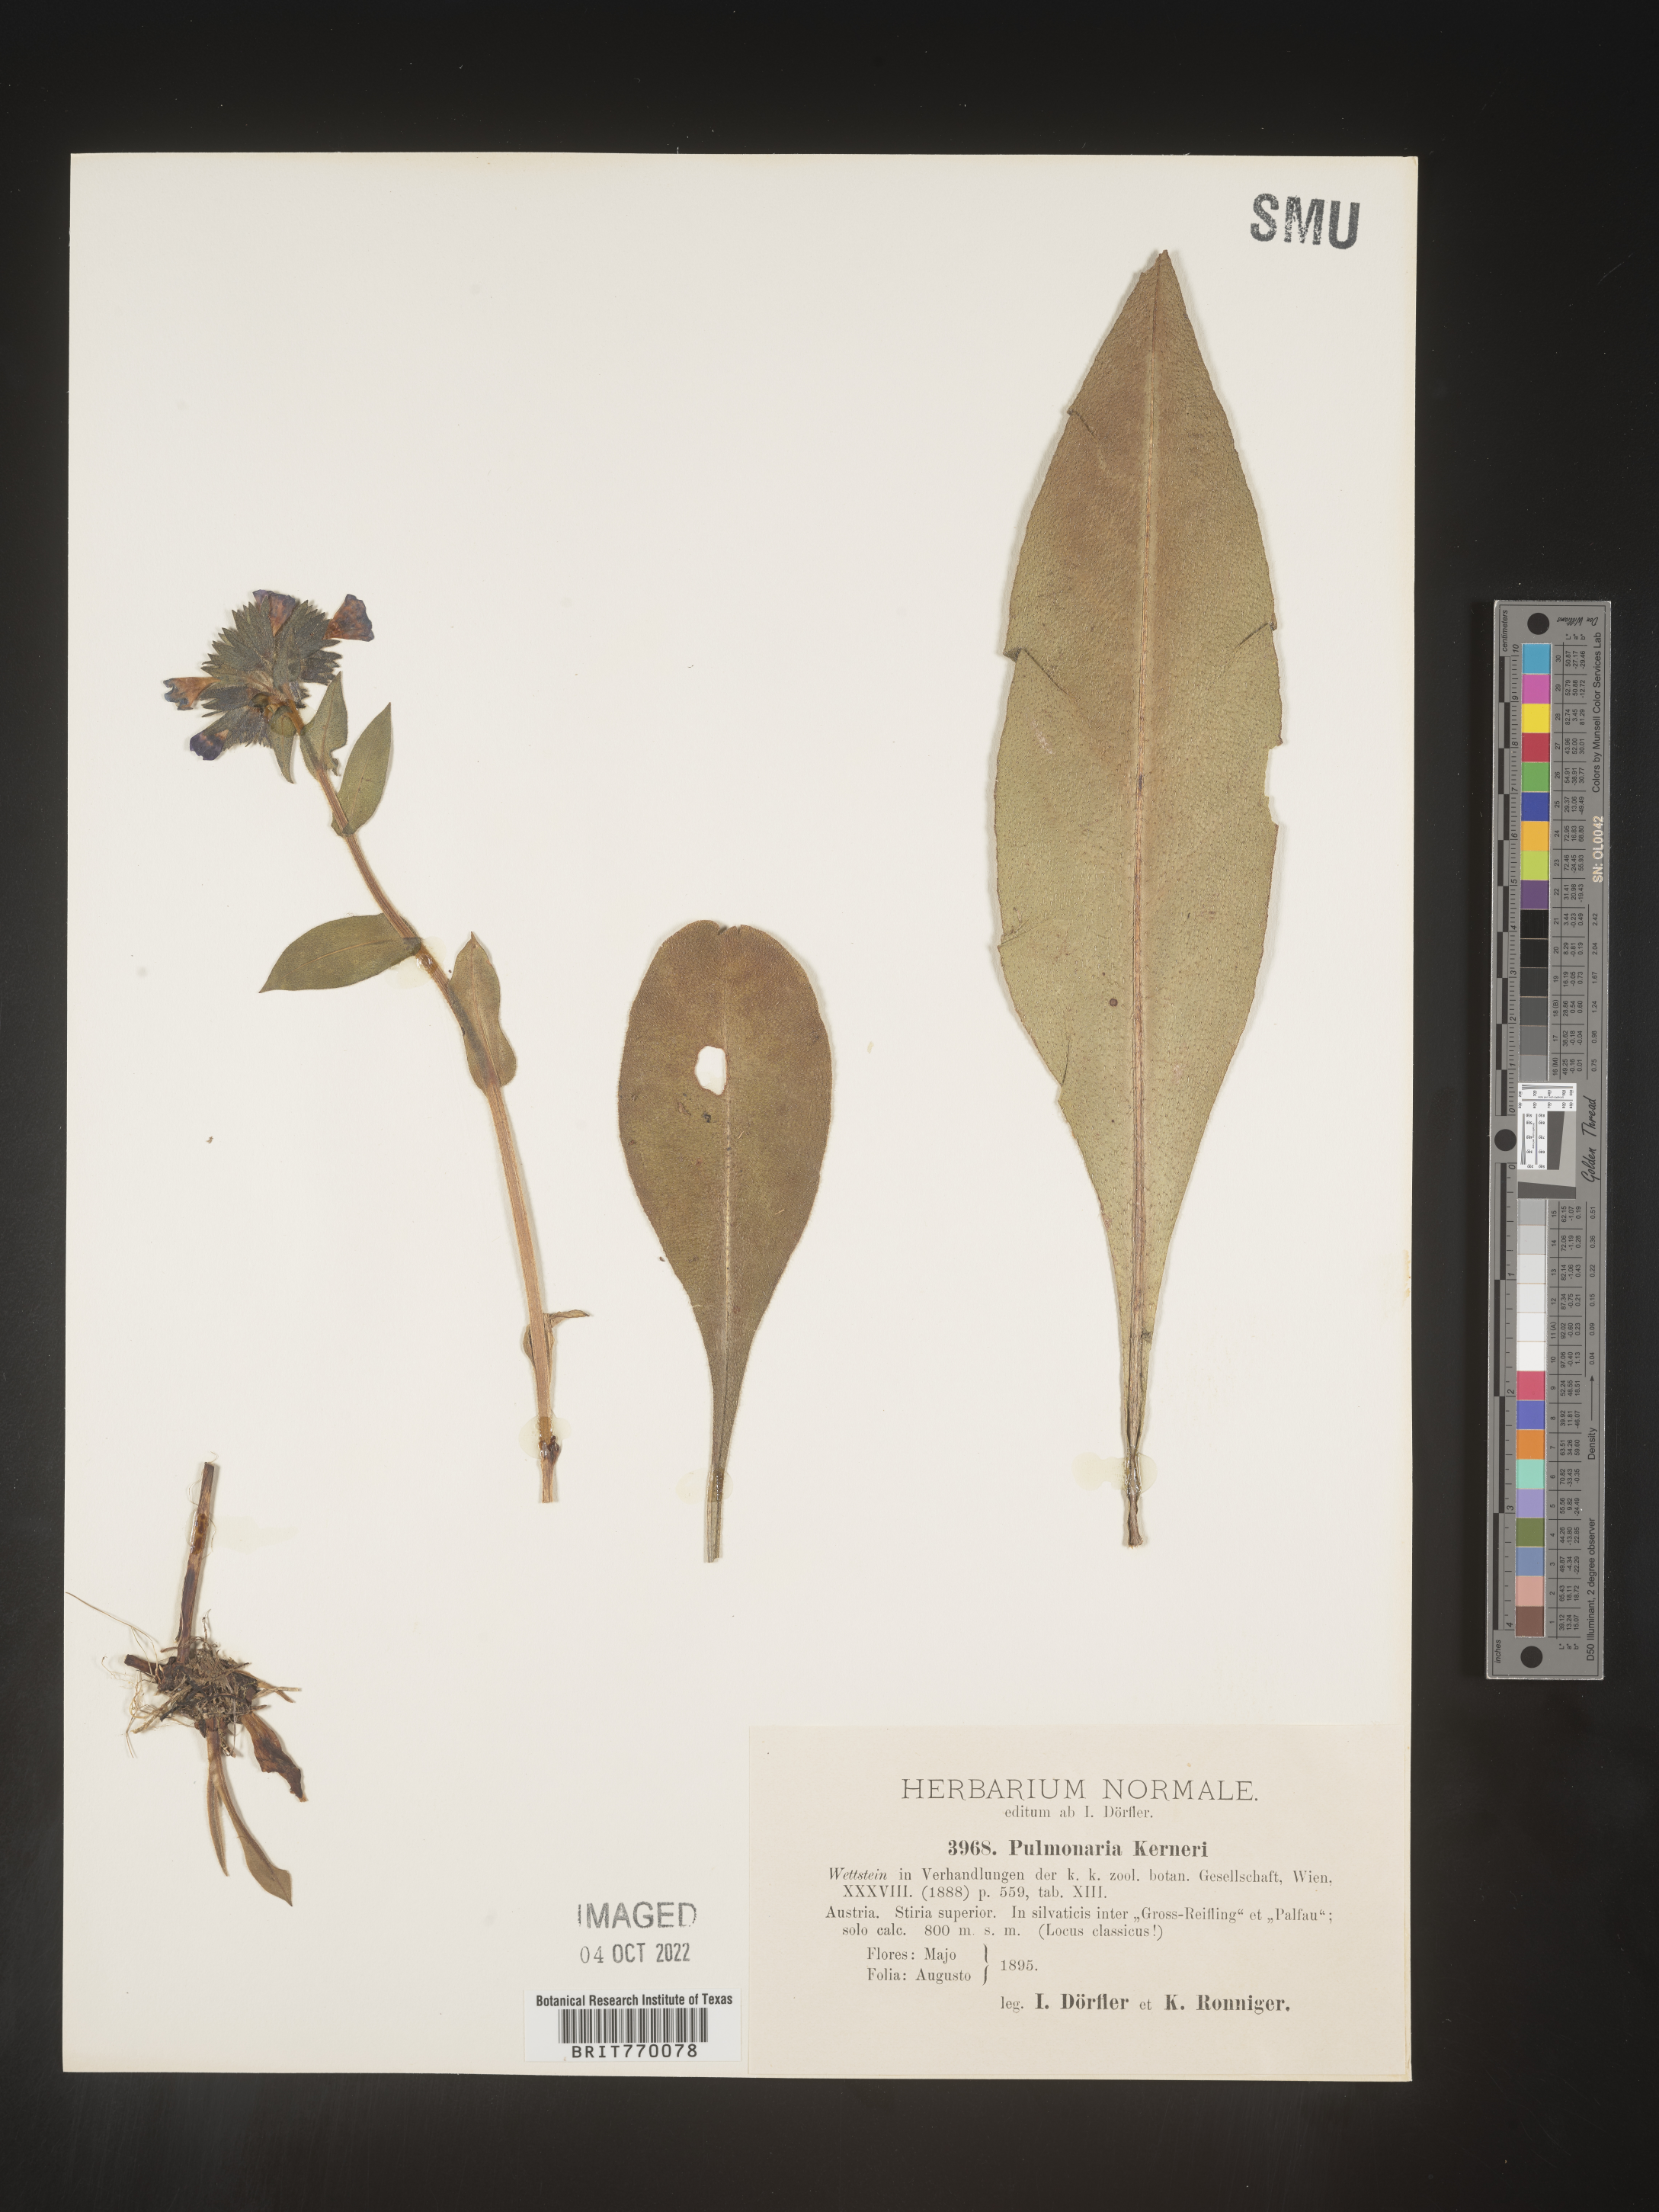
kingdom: Plantae
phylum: Tracheophyta
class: Magnoliopsida
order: Boraginales
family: Boraginaceae
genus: Pulmonaria
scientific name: Pulmonaria
